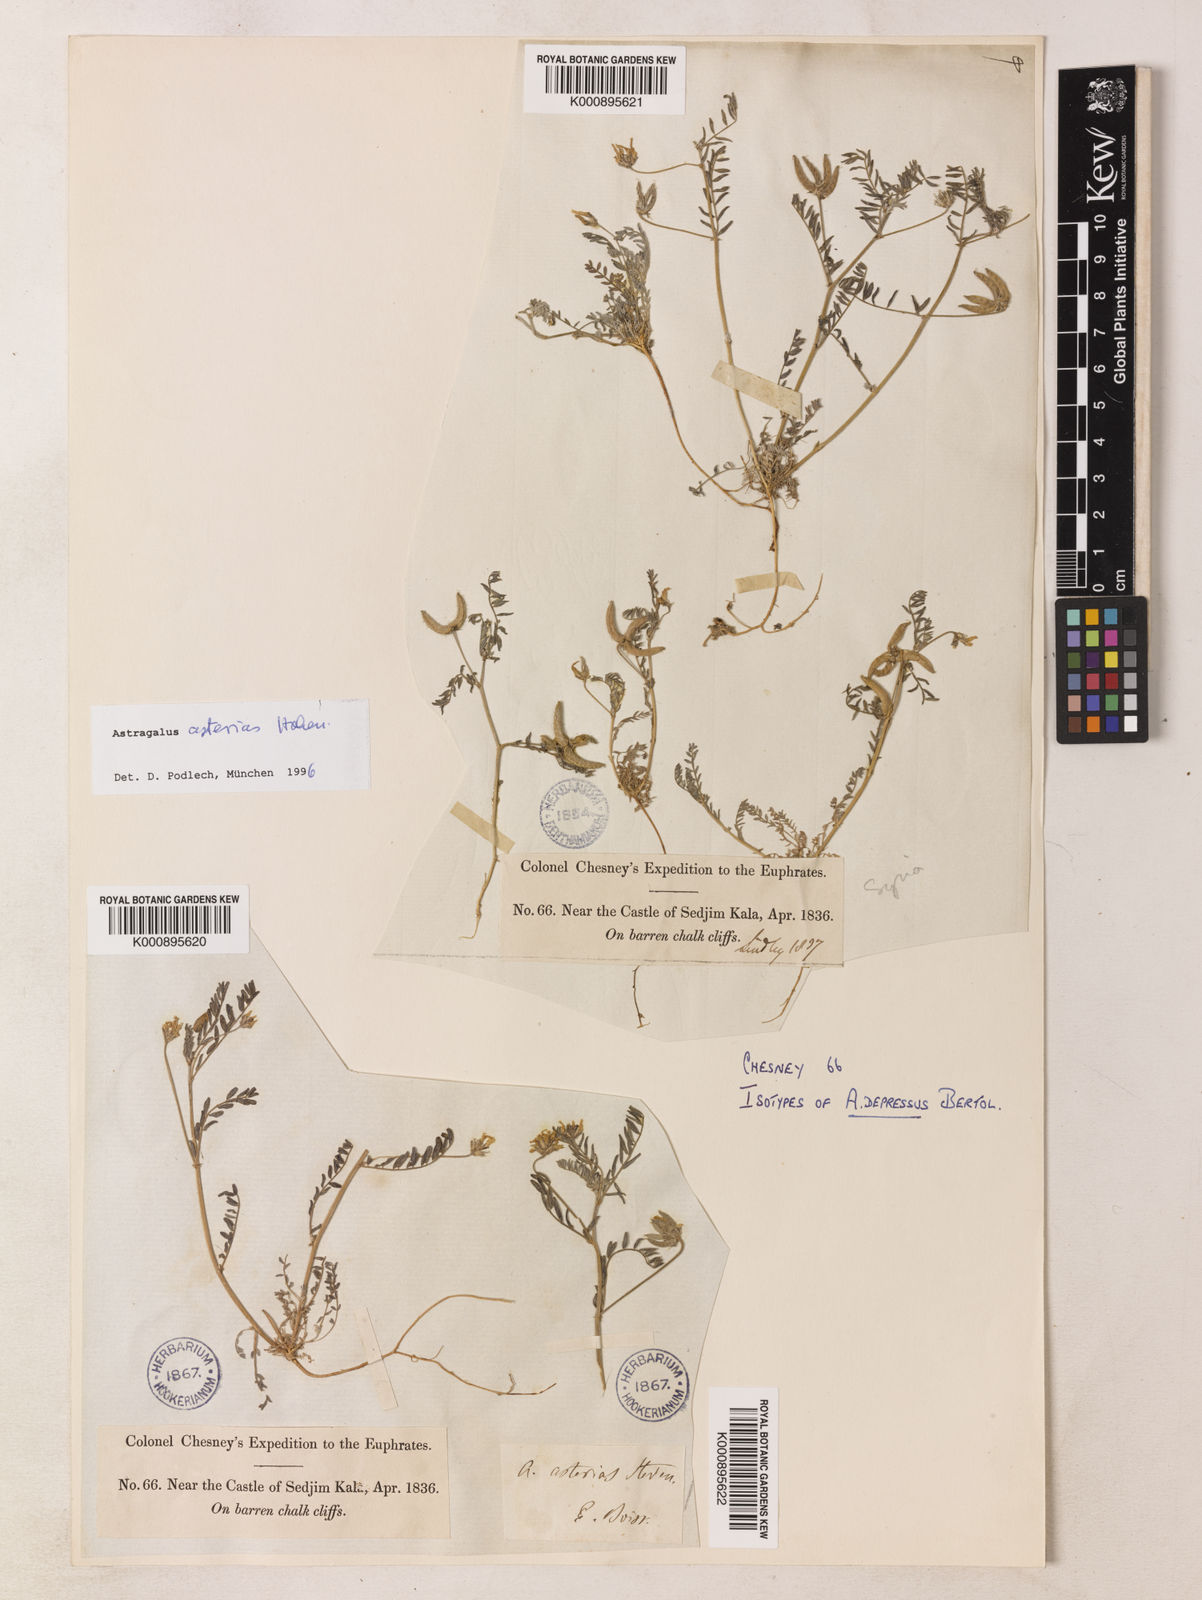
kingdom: Plantae
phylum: Tracheophyta
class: Magnoliopsida
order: Fabales
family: Fabaceae
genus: Astragalus
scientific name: Astragalus
